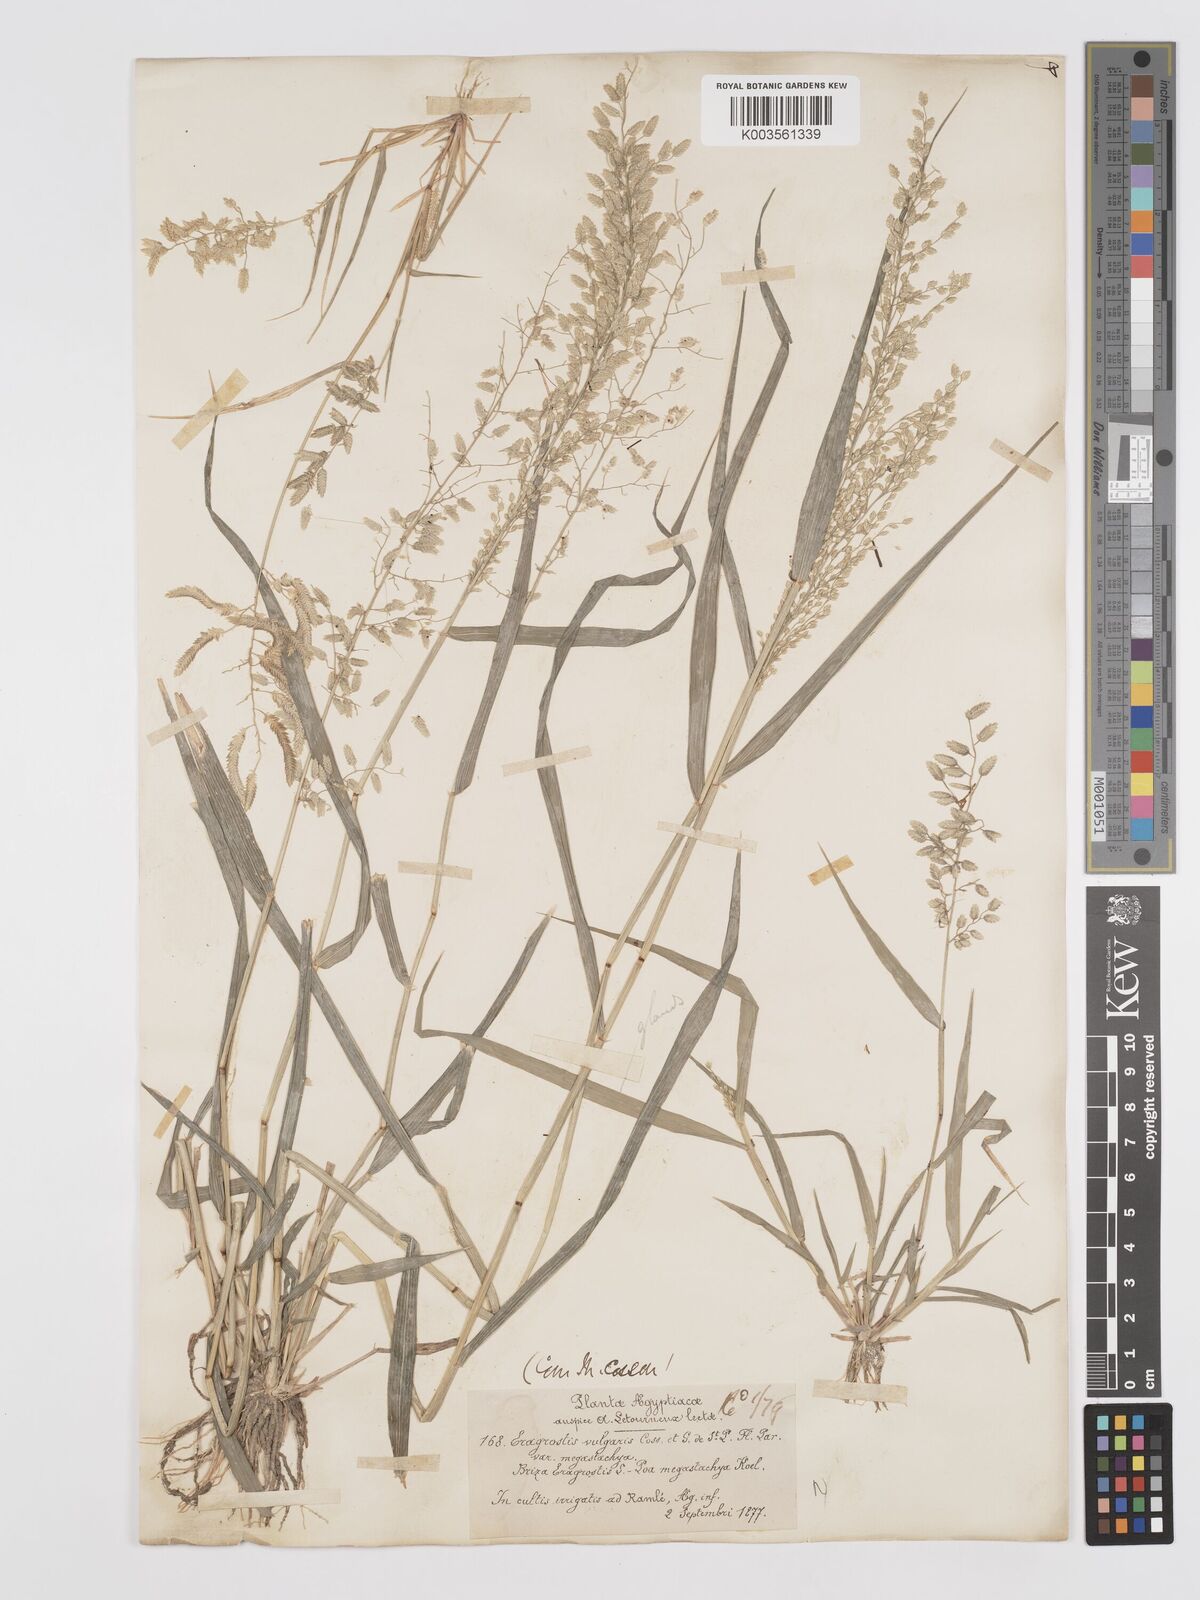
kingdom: Plantae
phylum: Tracheophyta
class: Liliopsida
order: Poales
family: Poaceae
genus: Eragrostis
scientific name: Eragrostis cilianensis
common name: Stinkgrass
